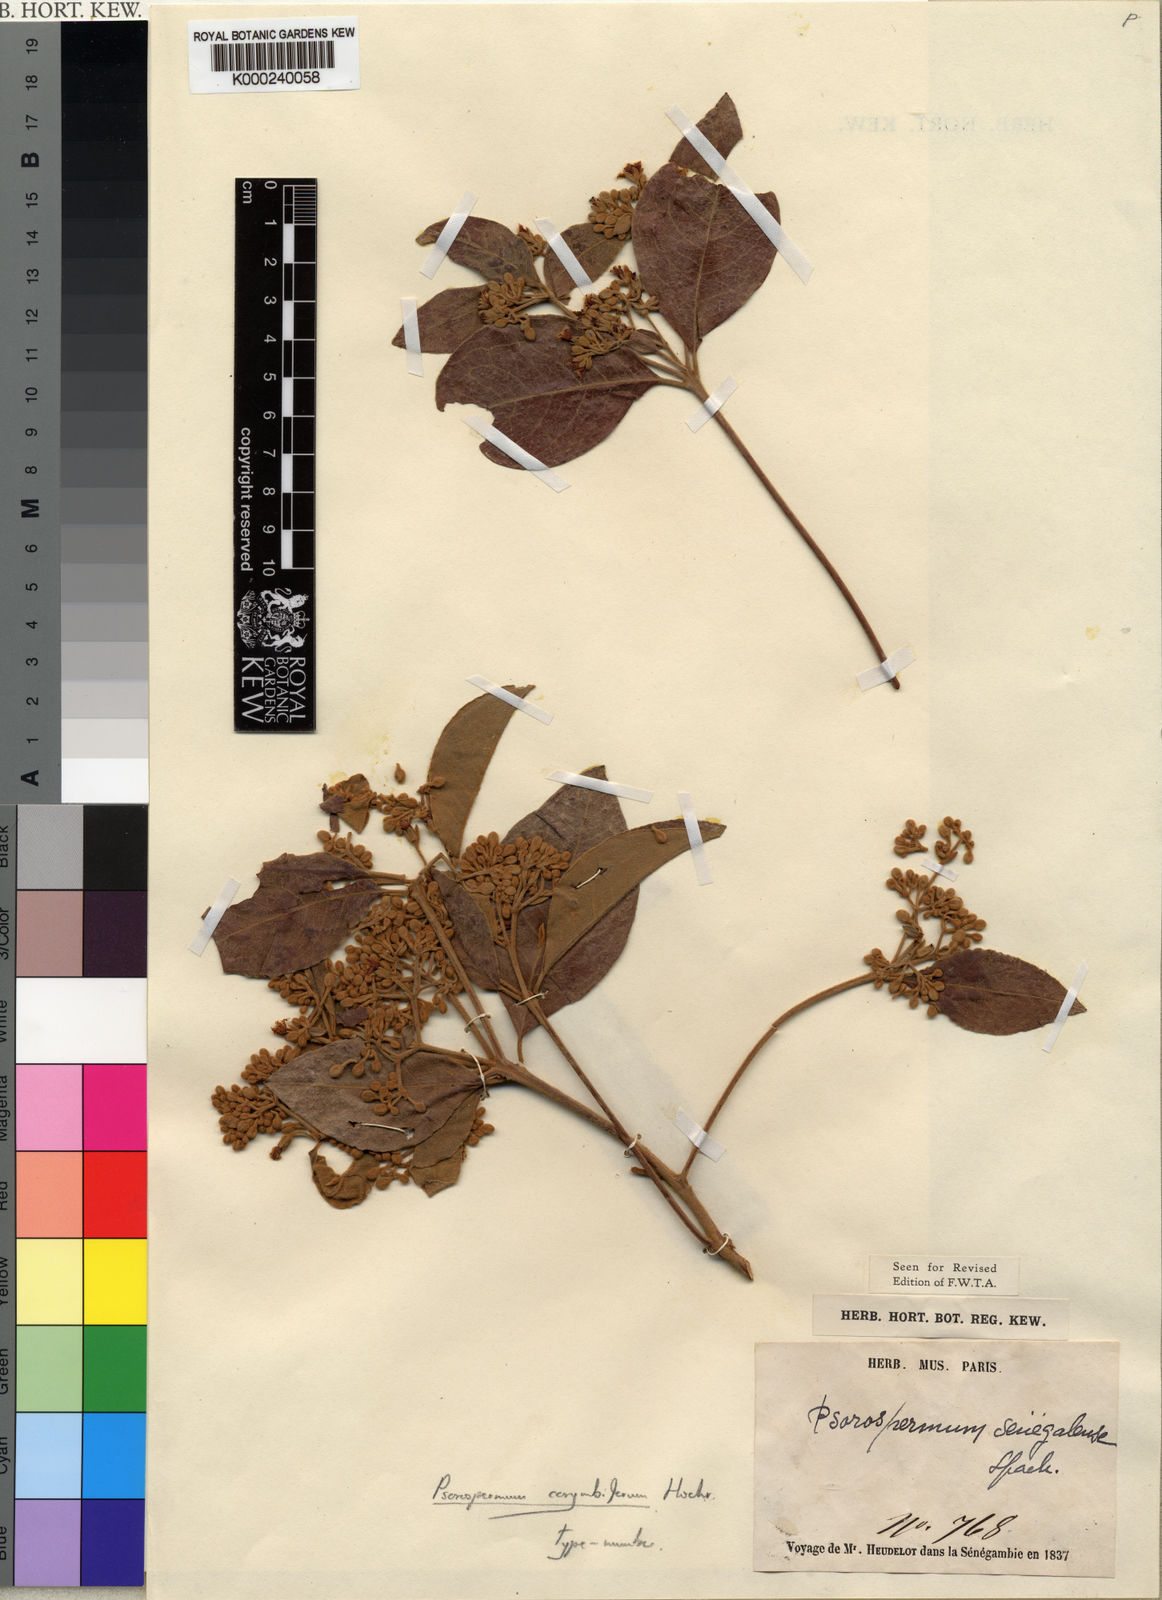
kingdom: Plantae
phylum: Tracheophyta
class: Magnoliopsida
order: Malpighiales
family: Hypericaceae
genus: Psorospermum
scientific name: Psorospermum corymbiferum
